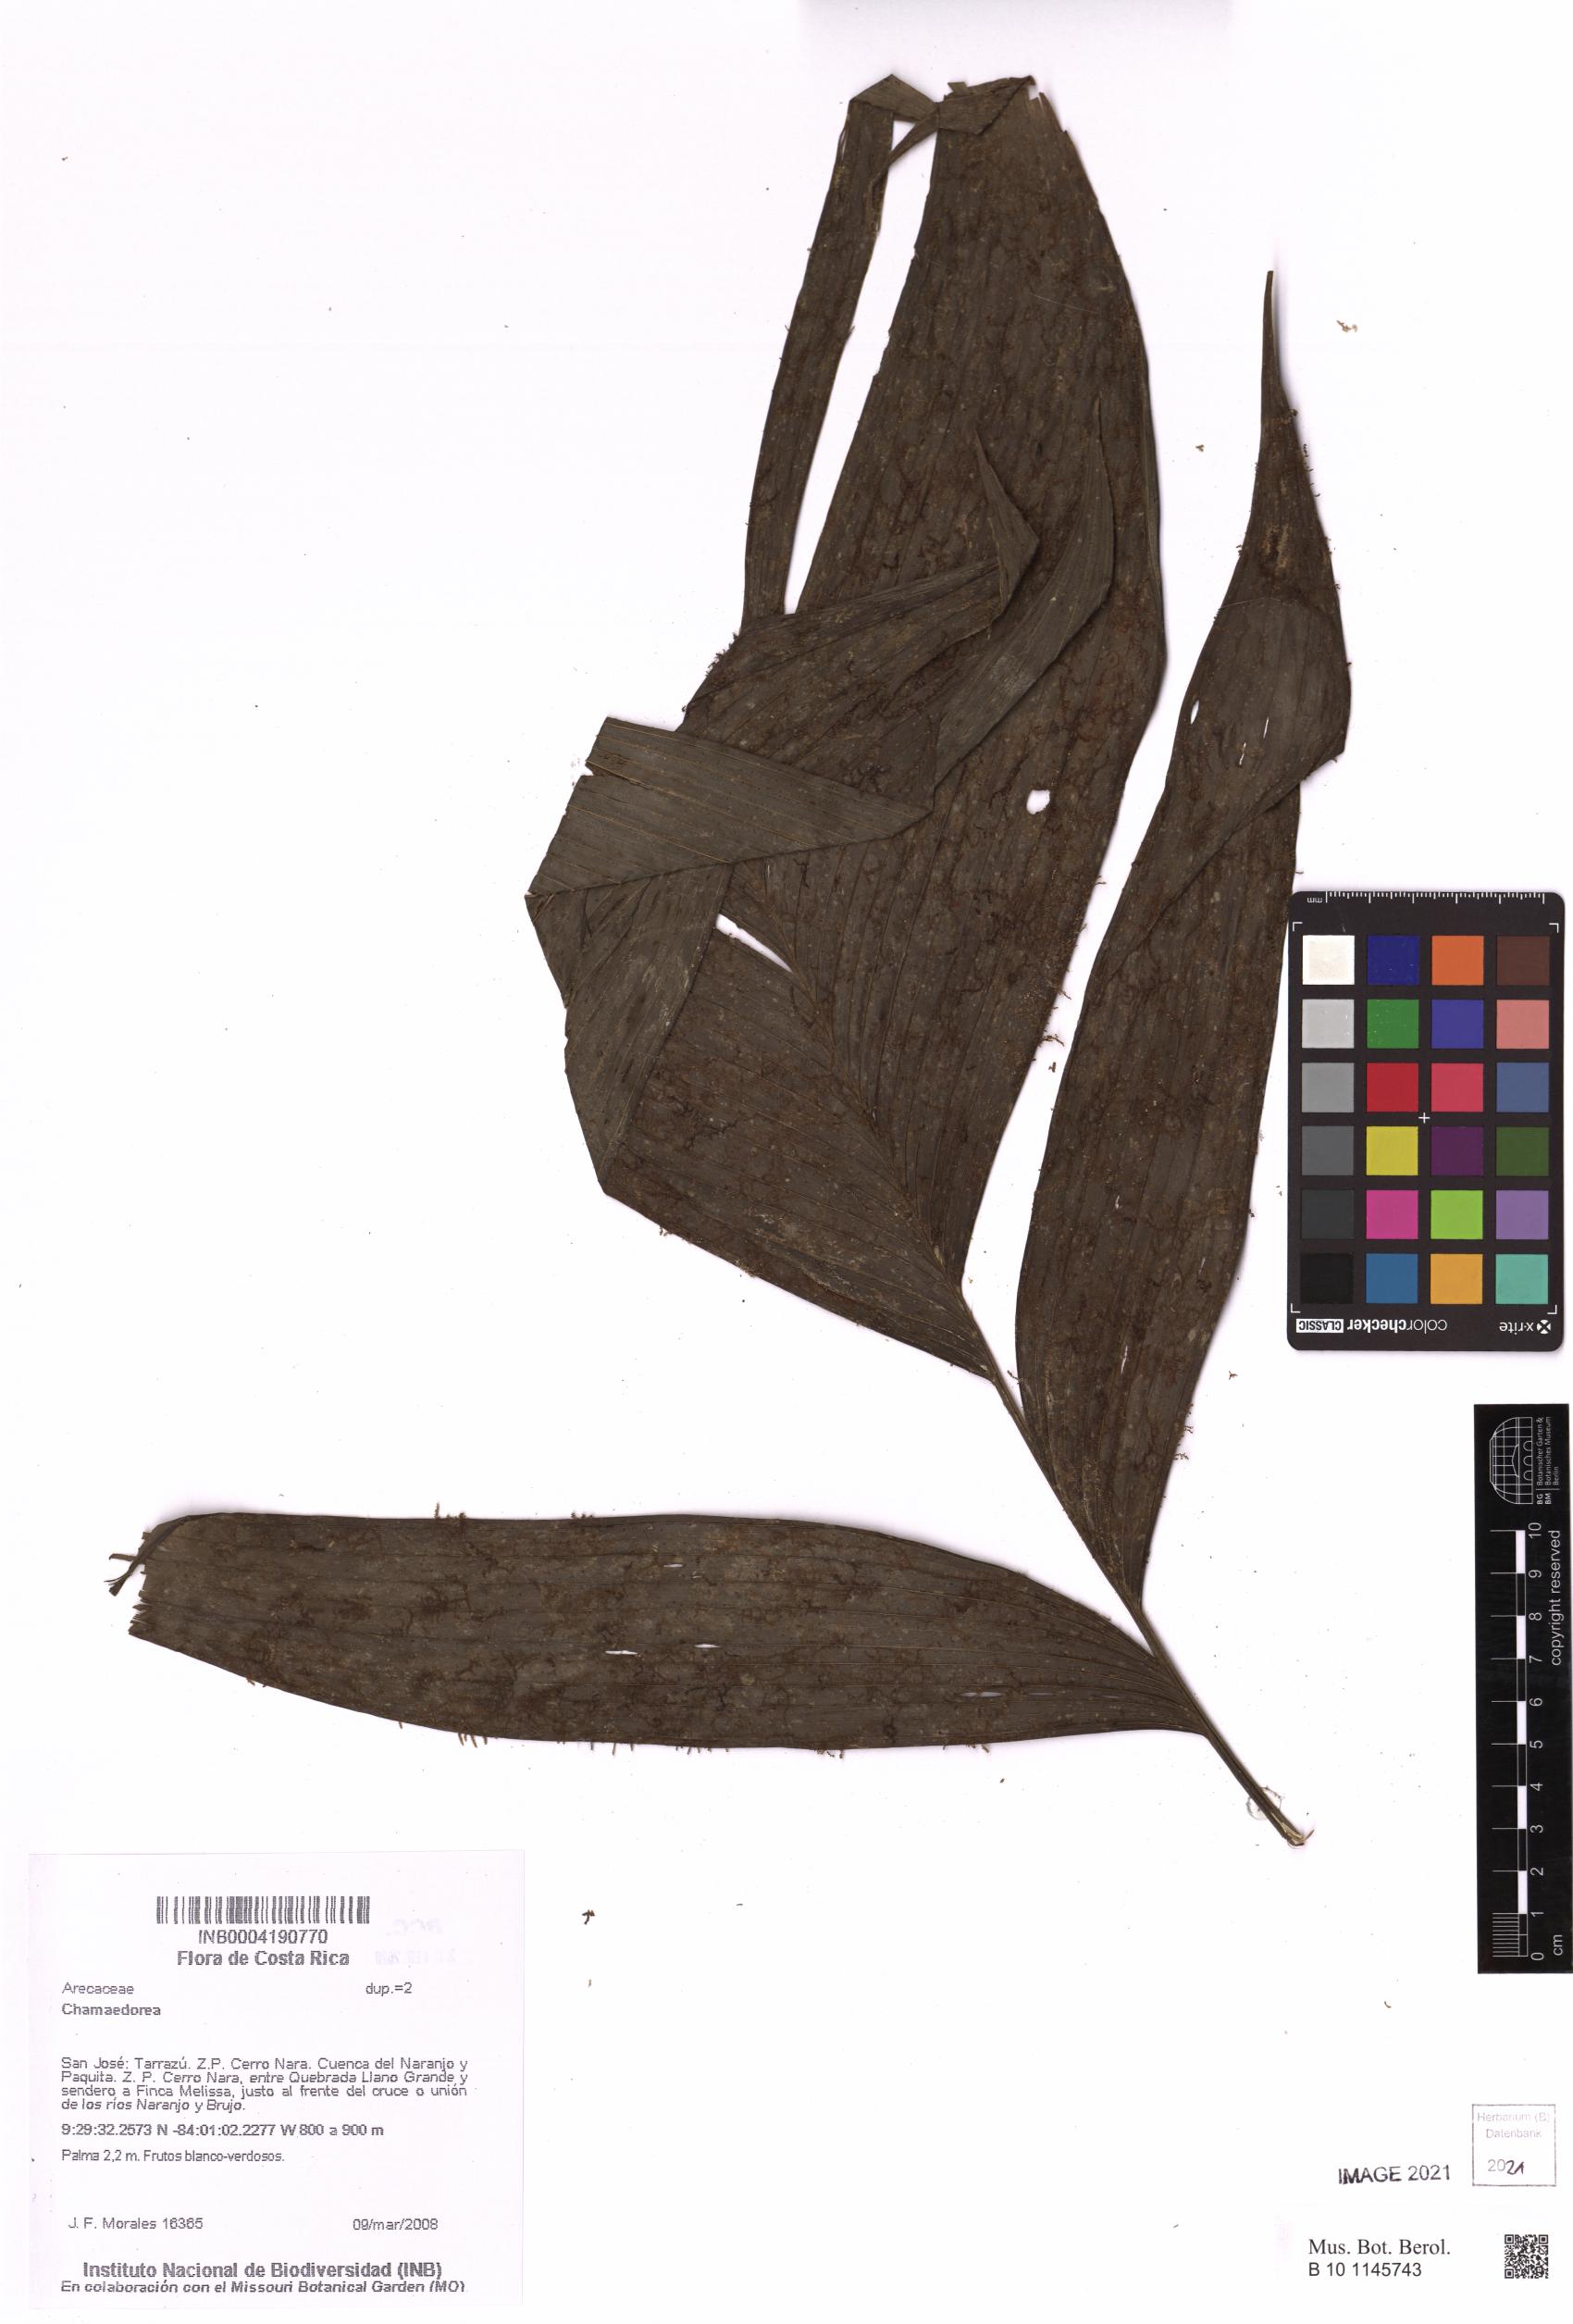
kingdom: Plantae
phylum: Tracheophyta
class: Liliopsida
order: Arecales
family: Arecaceae
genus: Chamaedorea
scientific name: Chamaedorea
